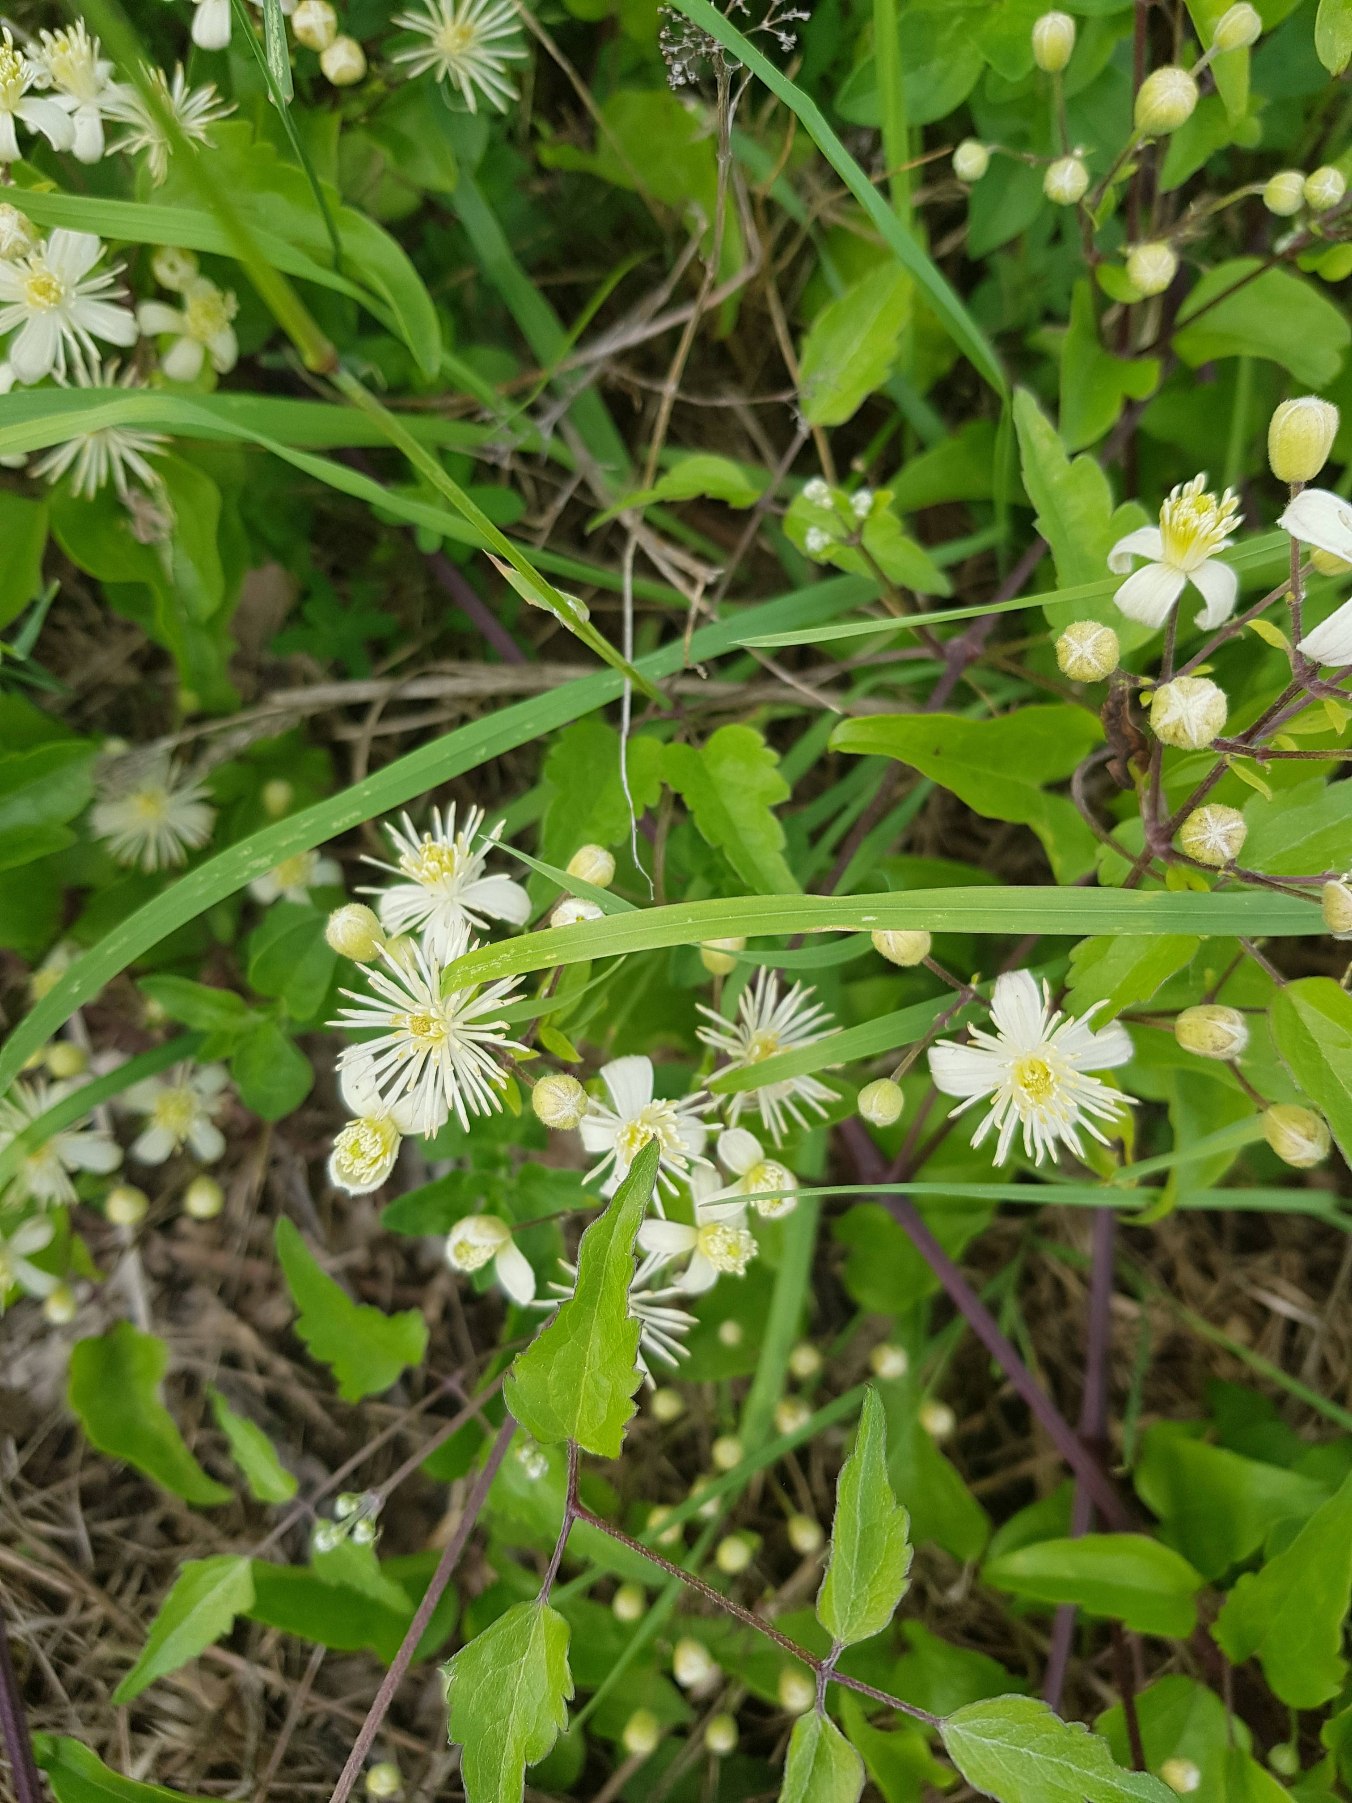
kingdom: Plantae
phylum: Tracheophyta
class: Magnoliopsida
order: Ranunculales
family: Ranunculaceae
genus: Clematis
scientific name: Clematis vitalba
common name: Skovranke
